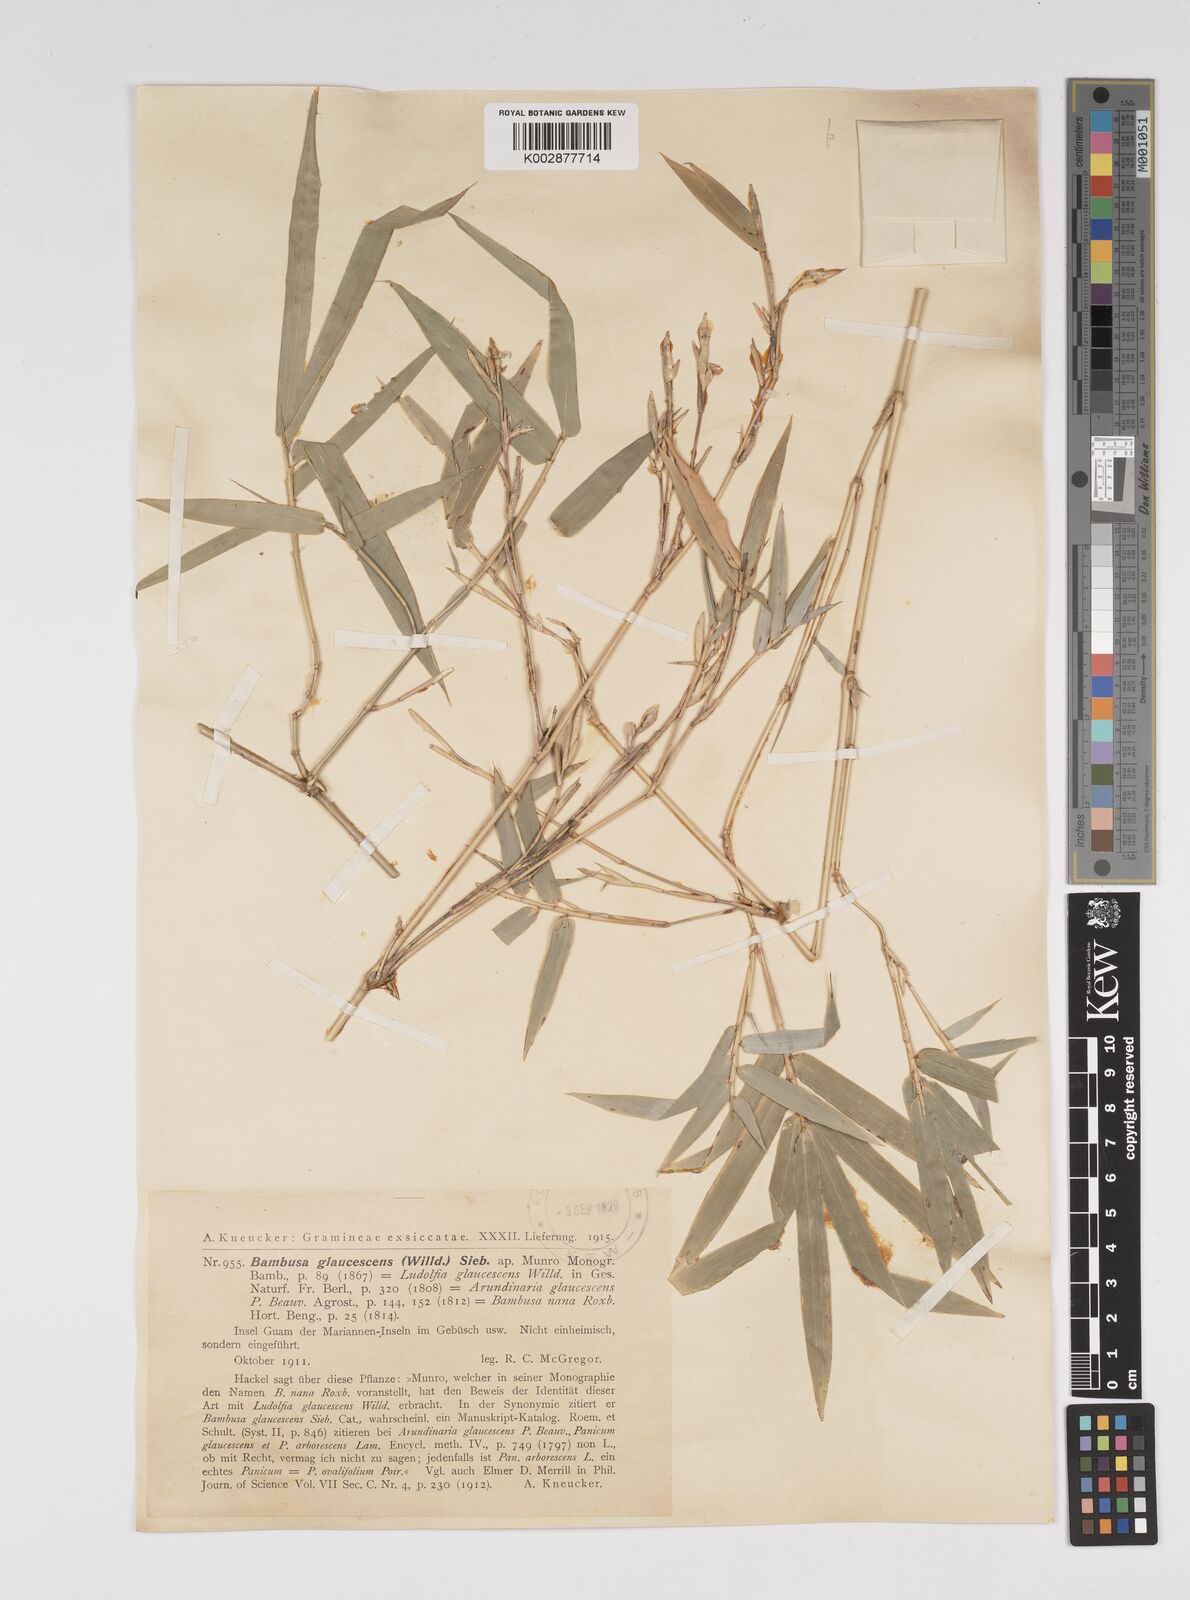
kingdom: Plantae
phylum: Tracheophyta
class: Liliopsida
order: Poales
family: Poaceae
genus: Bambusa
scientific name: Bambusa multiplex
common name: Hedge bamboo
